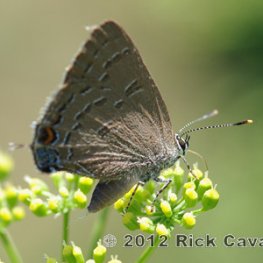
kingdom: Animalia
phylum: Arthropoda
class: Insecta
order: Lepidoptera
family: Lycaenidae
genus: Satyrium
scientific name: Satyrium calanus
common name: Banded Hairstreak
